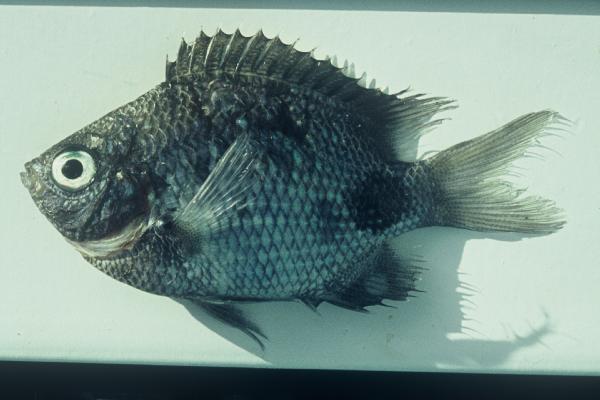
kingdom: Animalia
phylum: Chordata
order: Perciformes
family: Pomacentridae
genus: Abudefduf
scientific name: Abudefduf sparoides
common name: False-eye sergeant
